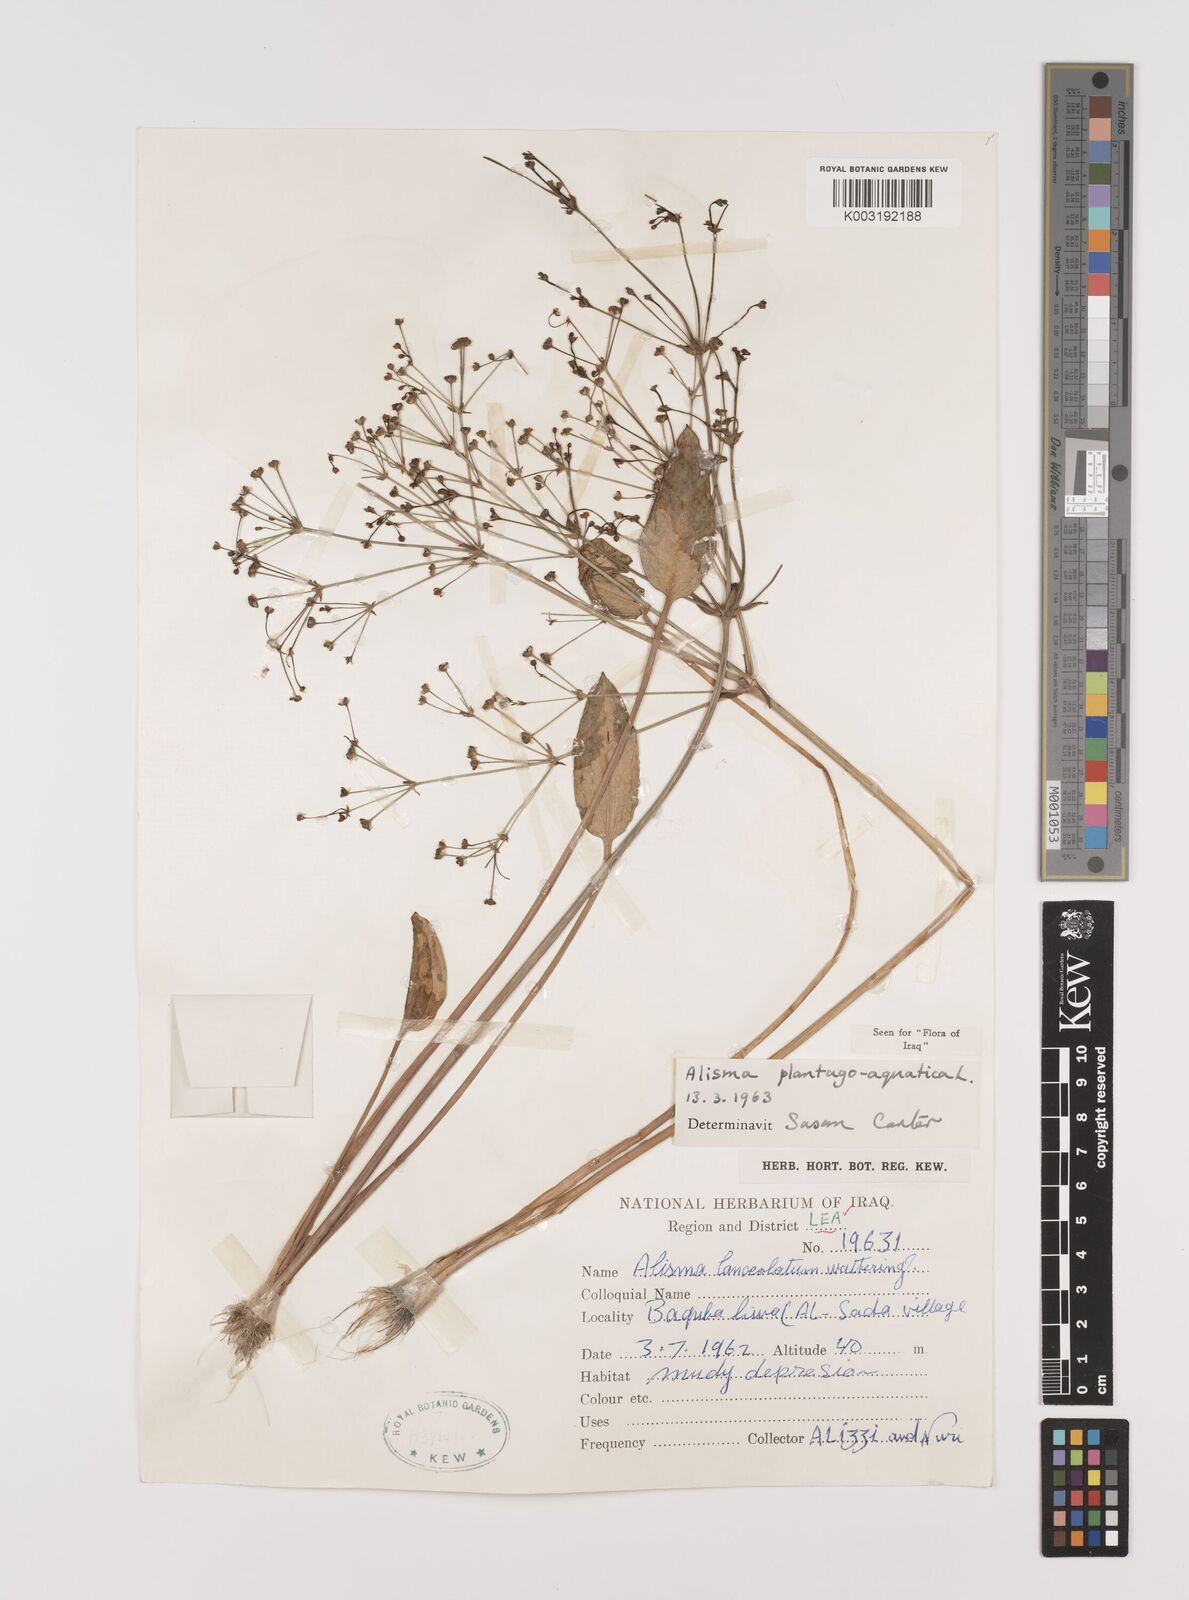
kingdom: Plantae
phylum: Tracheophyta
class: Liliopsida
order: Alismatales
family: Alismataceae
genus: Alisma
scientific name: Alisma plantago-aquatica
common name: Water-plantain
